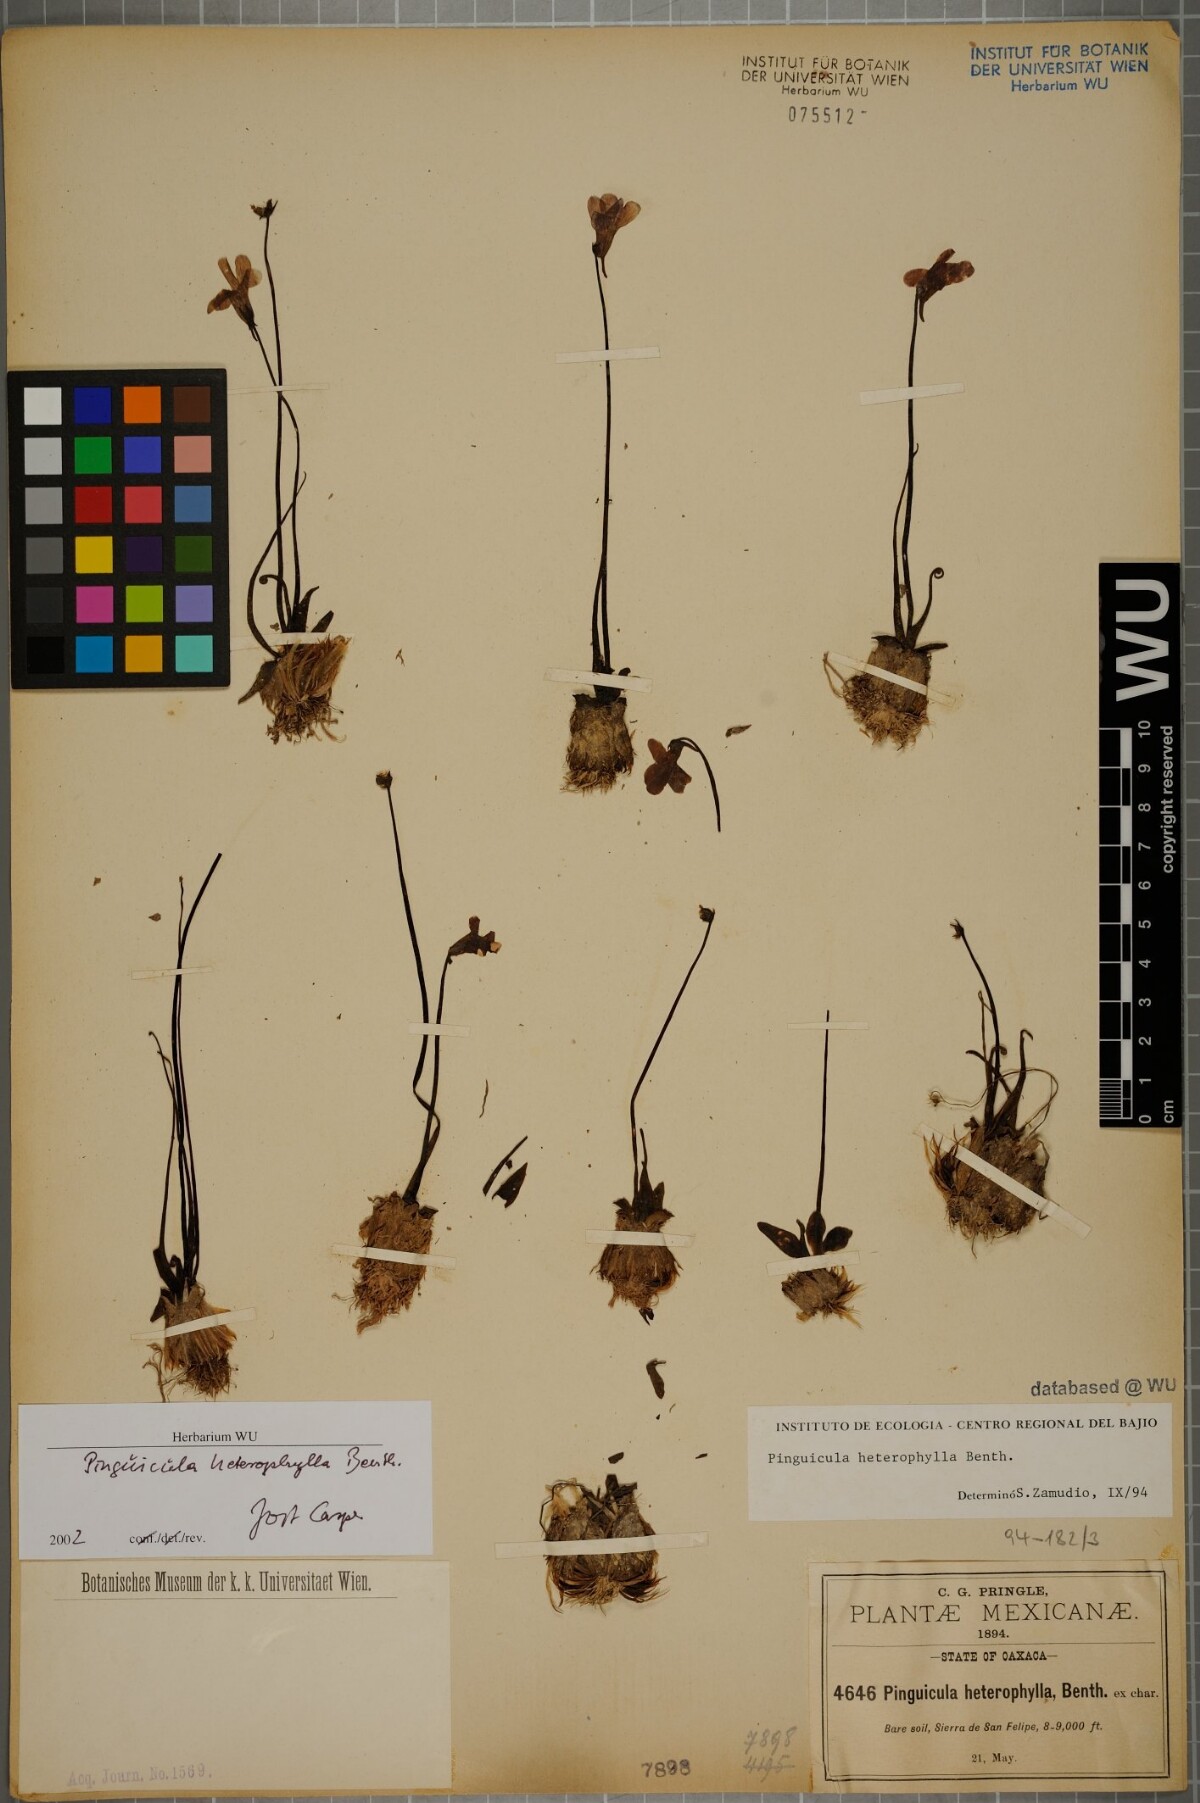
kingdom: Plantae
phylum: Tracheophyta
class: Magnoliopsida
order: Lamiales
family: Lentibulariaceae
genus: Pinguicula
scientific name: Pinguicula heterophylla
